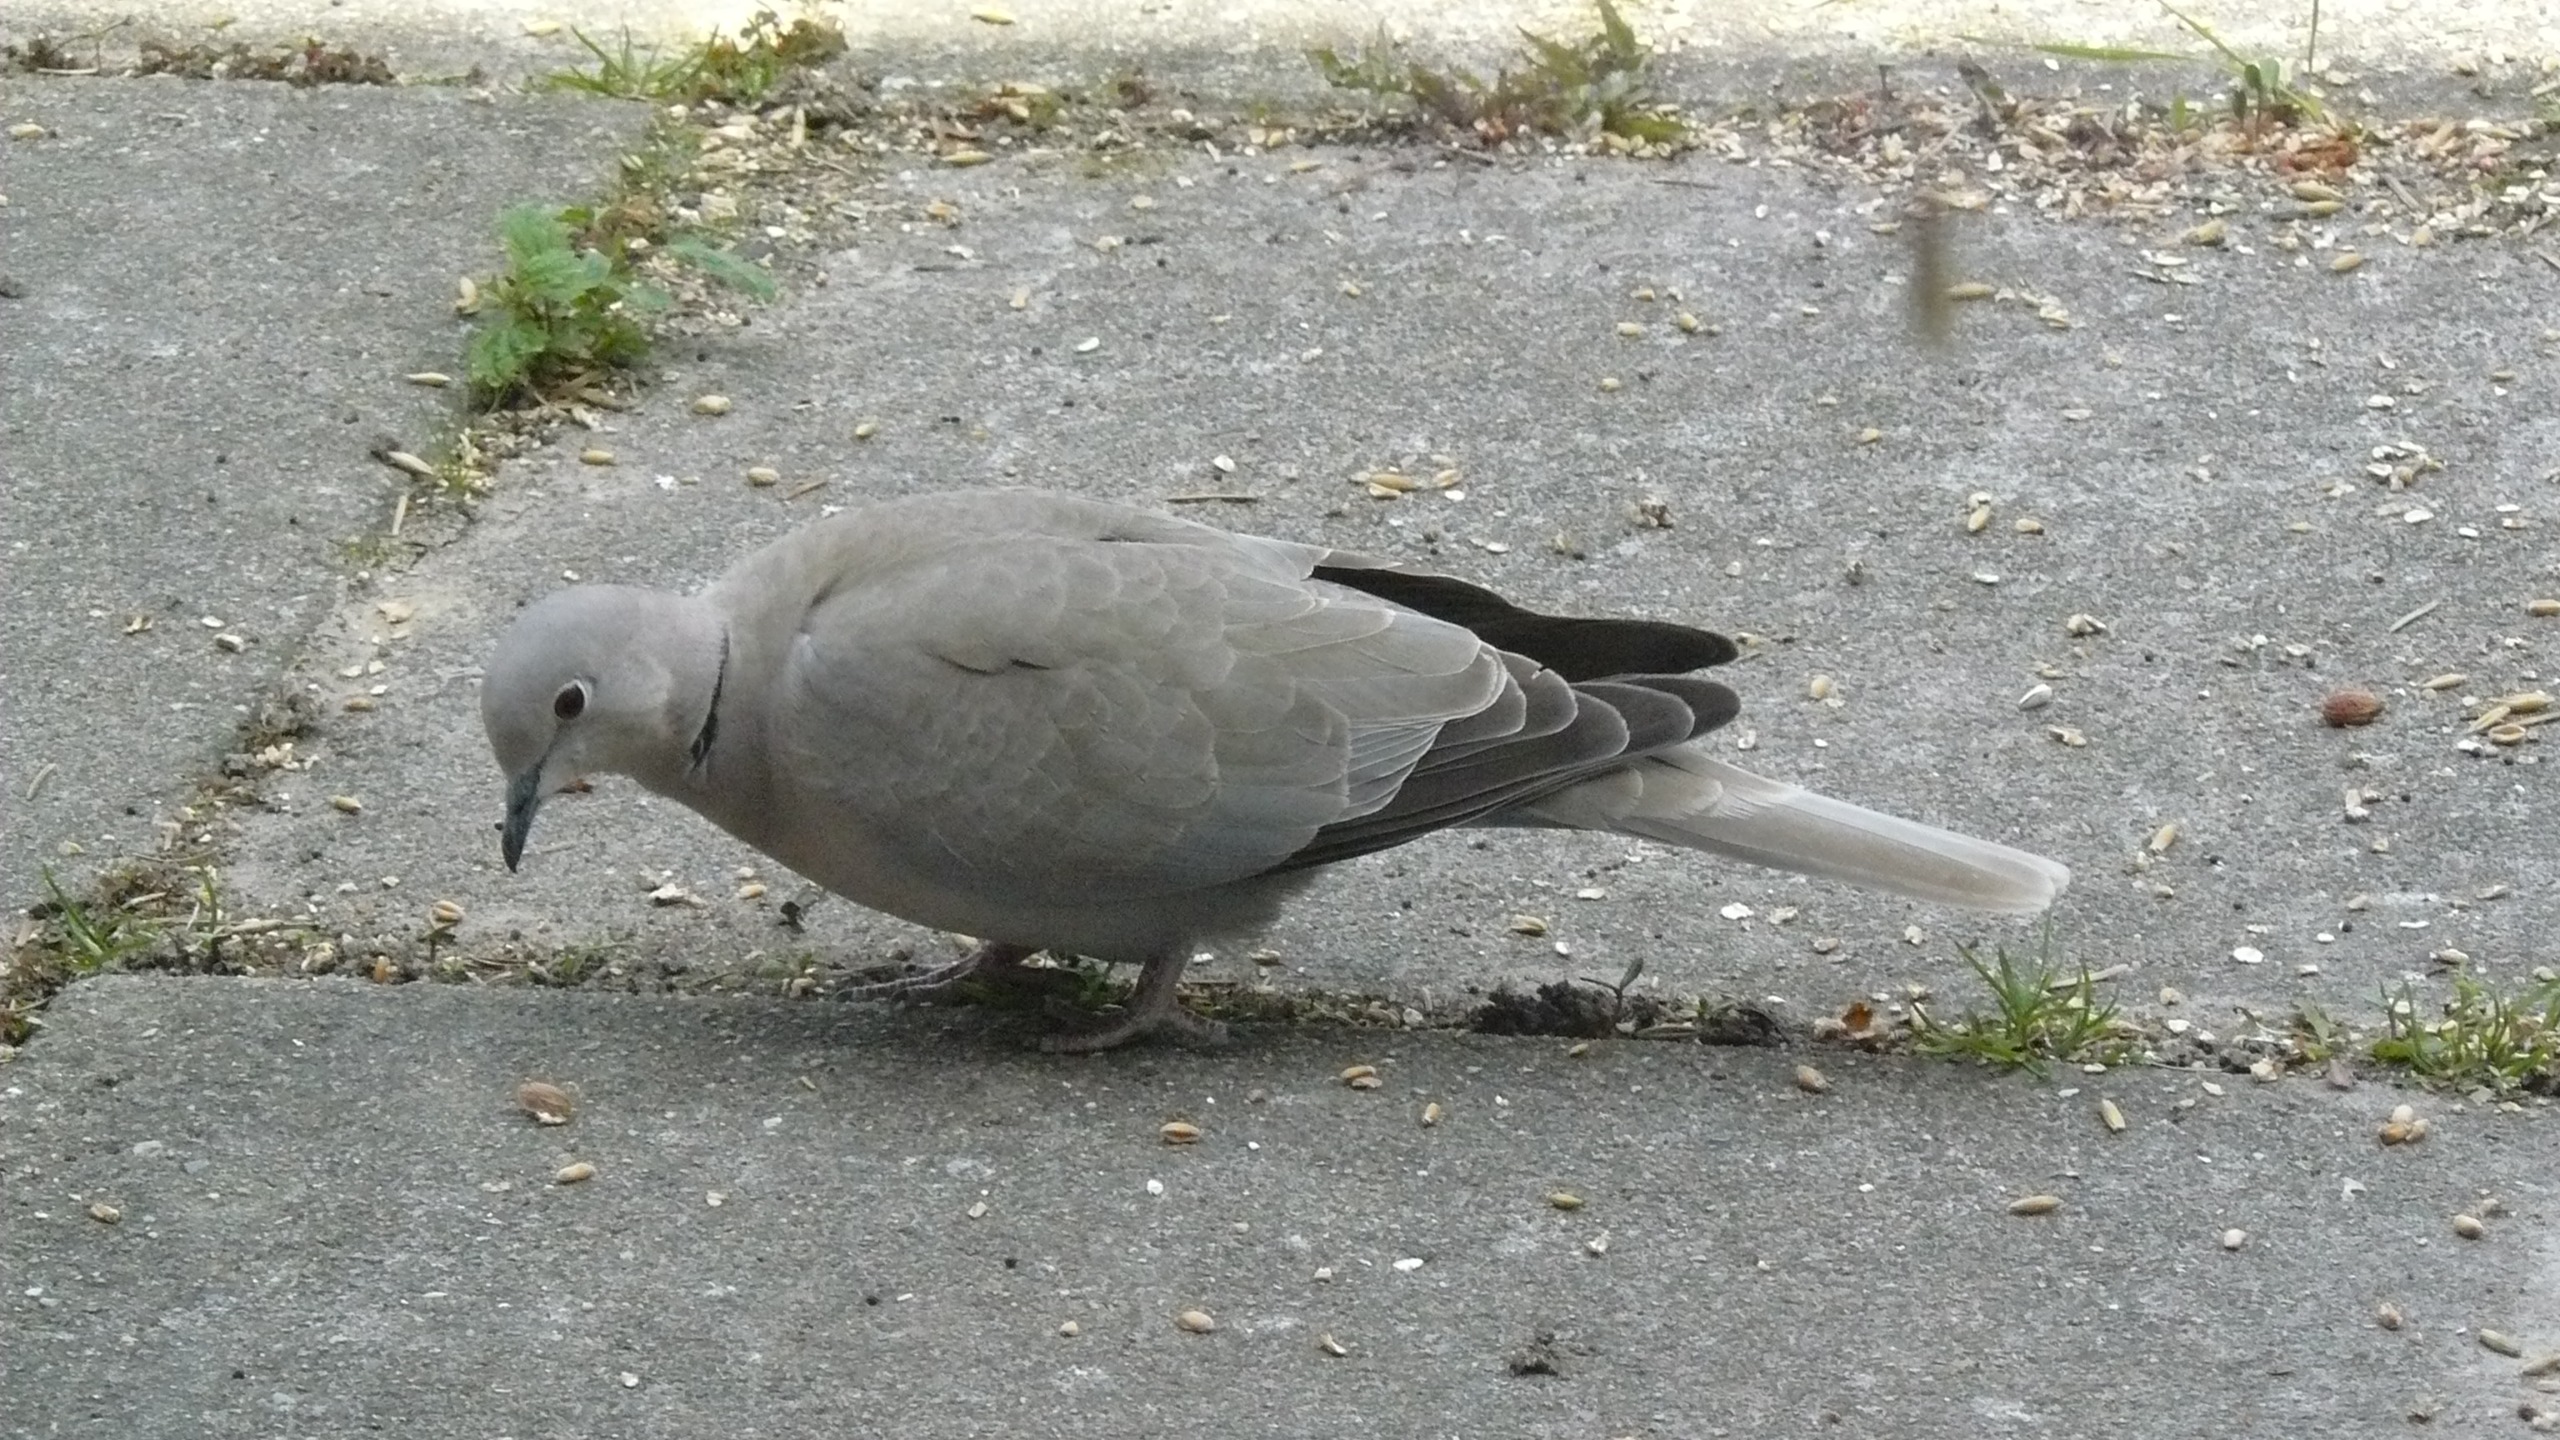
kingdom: Animalia
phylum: Chordata
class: Aves
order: Columbiformes
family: Columbidae
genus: Streptopelia
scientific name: Streptopelia decaocto
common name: Tyrkerdue
